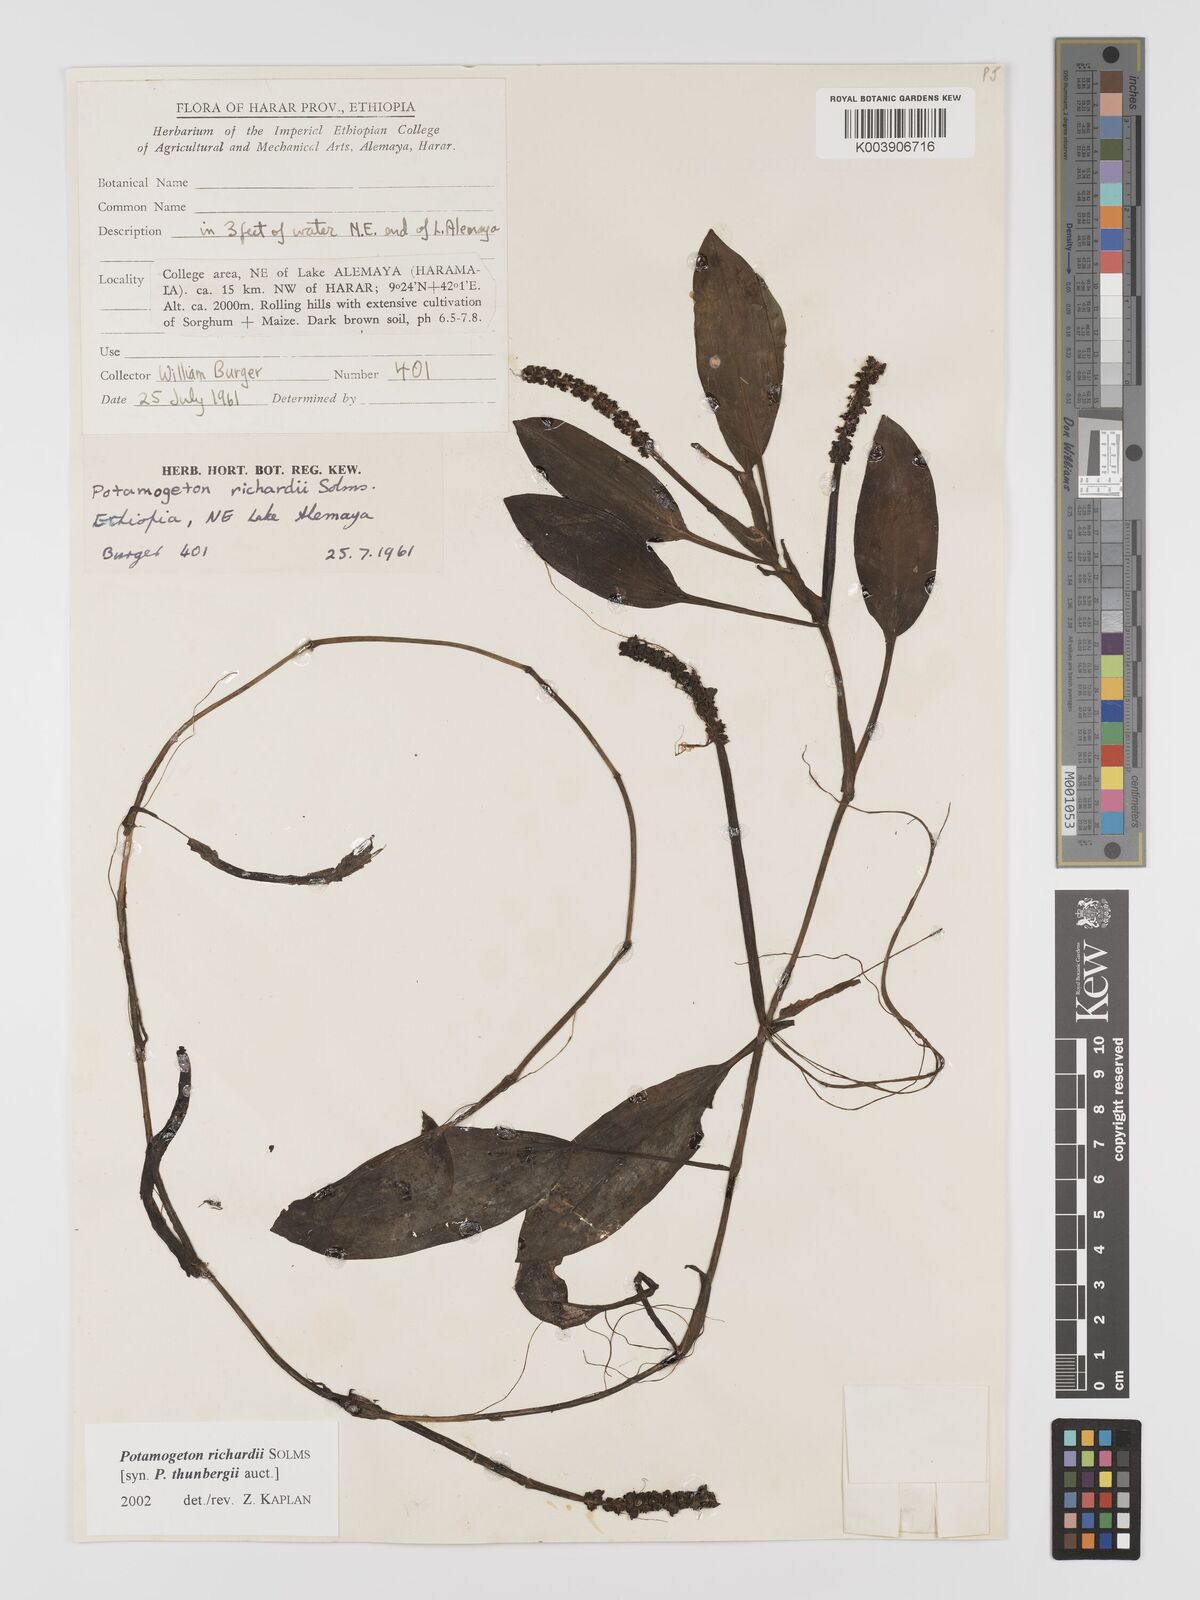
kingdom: Plantae
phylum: Tracheophyta
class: Liliopsida
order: Alismatales
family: Potamogetonaceae
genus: Potamogeton
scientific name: Potamogeton nodosus
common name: Loddon pondweed
